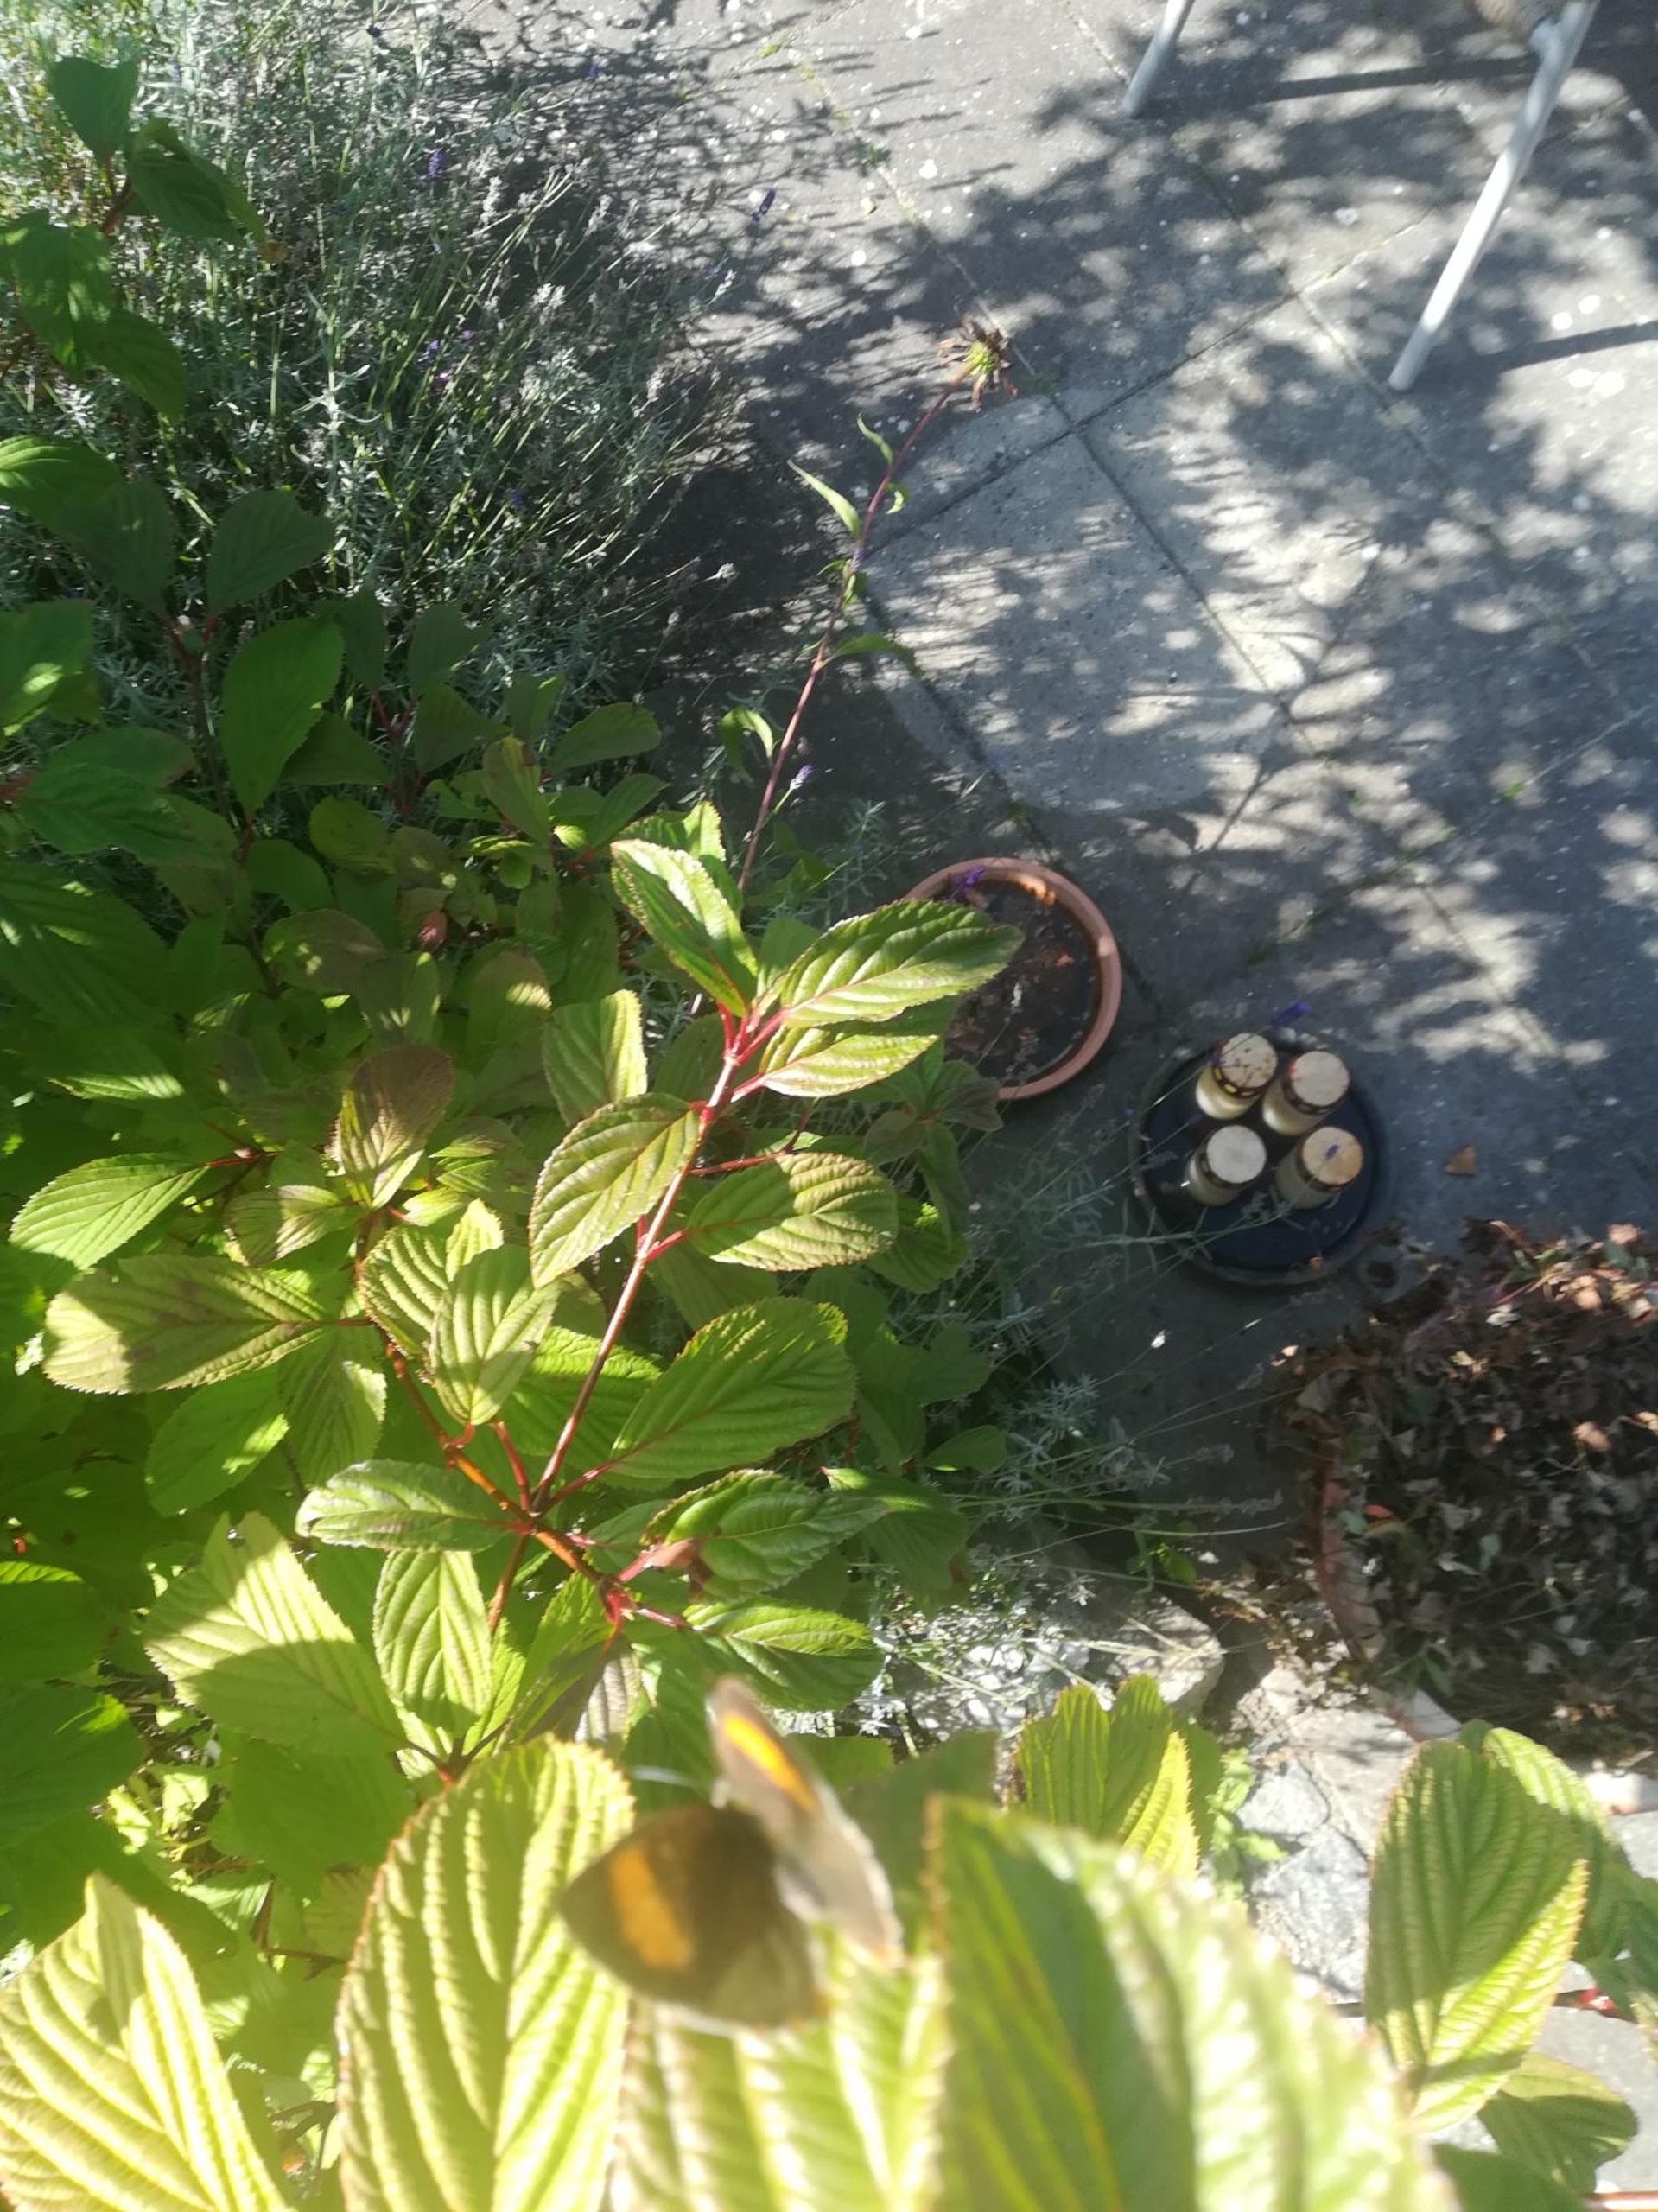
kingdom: Animalia
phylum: Arthropoda
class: Insecta
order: Lepidoptera
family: Lycaenidae
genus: Thecla
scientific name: Thecla betulae
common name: Guldhale
